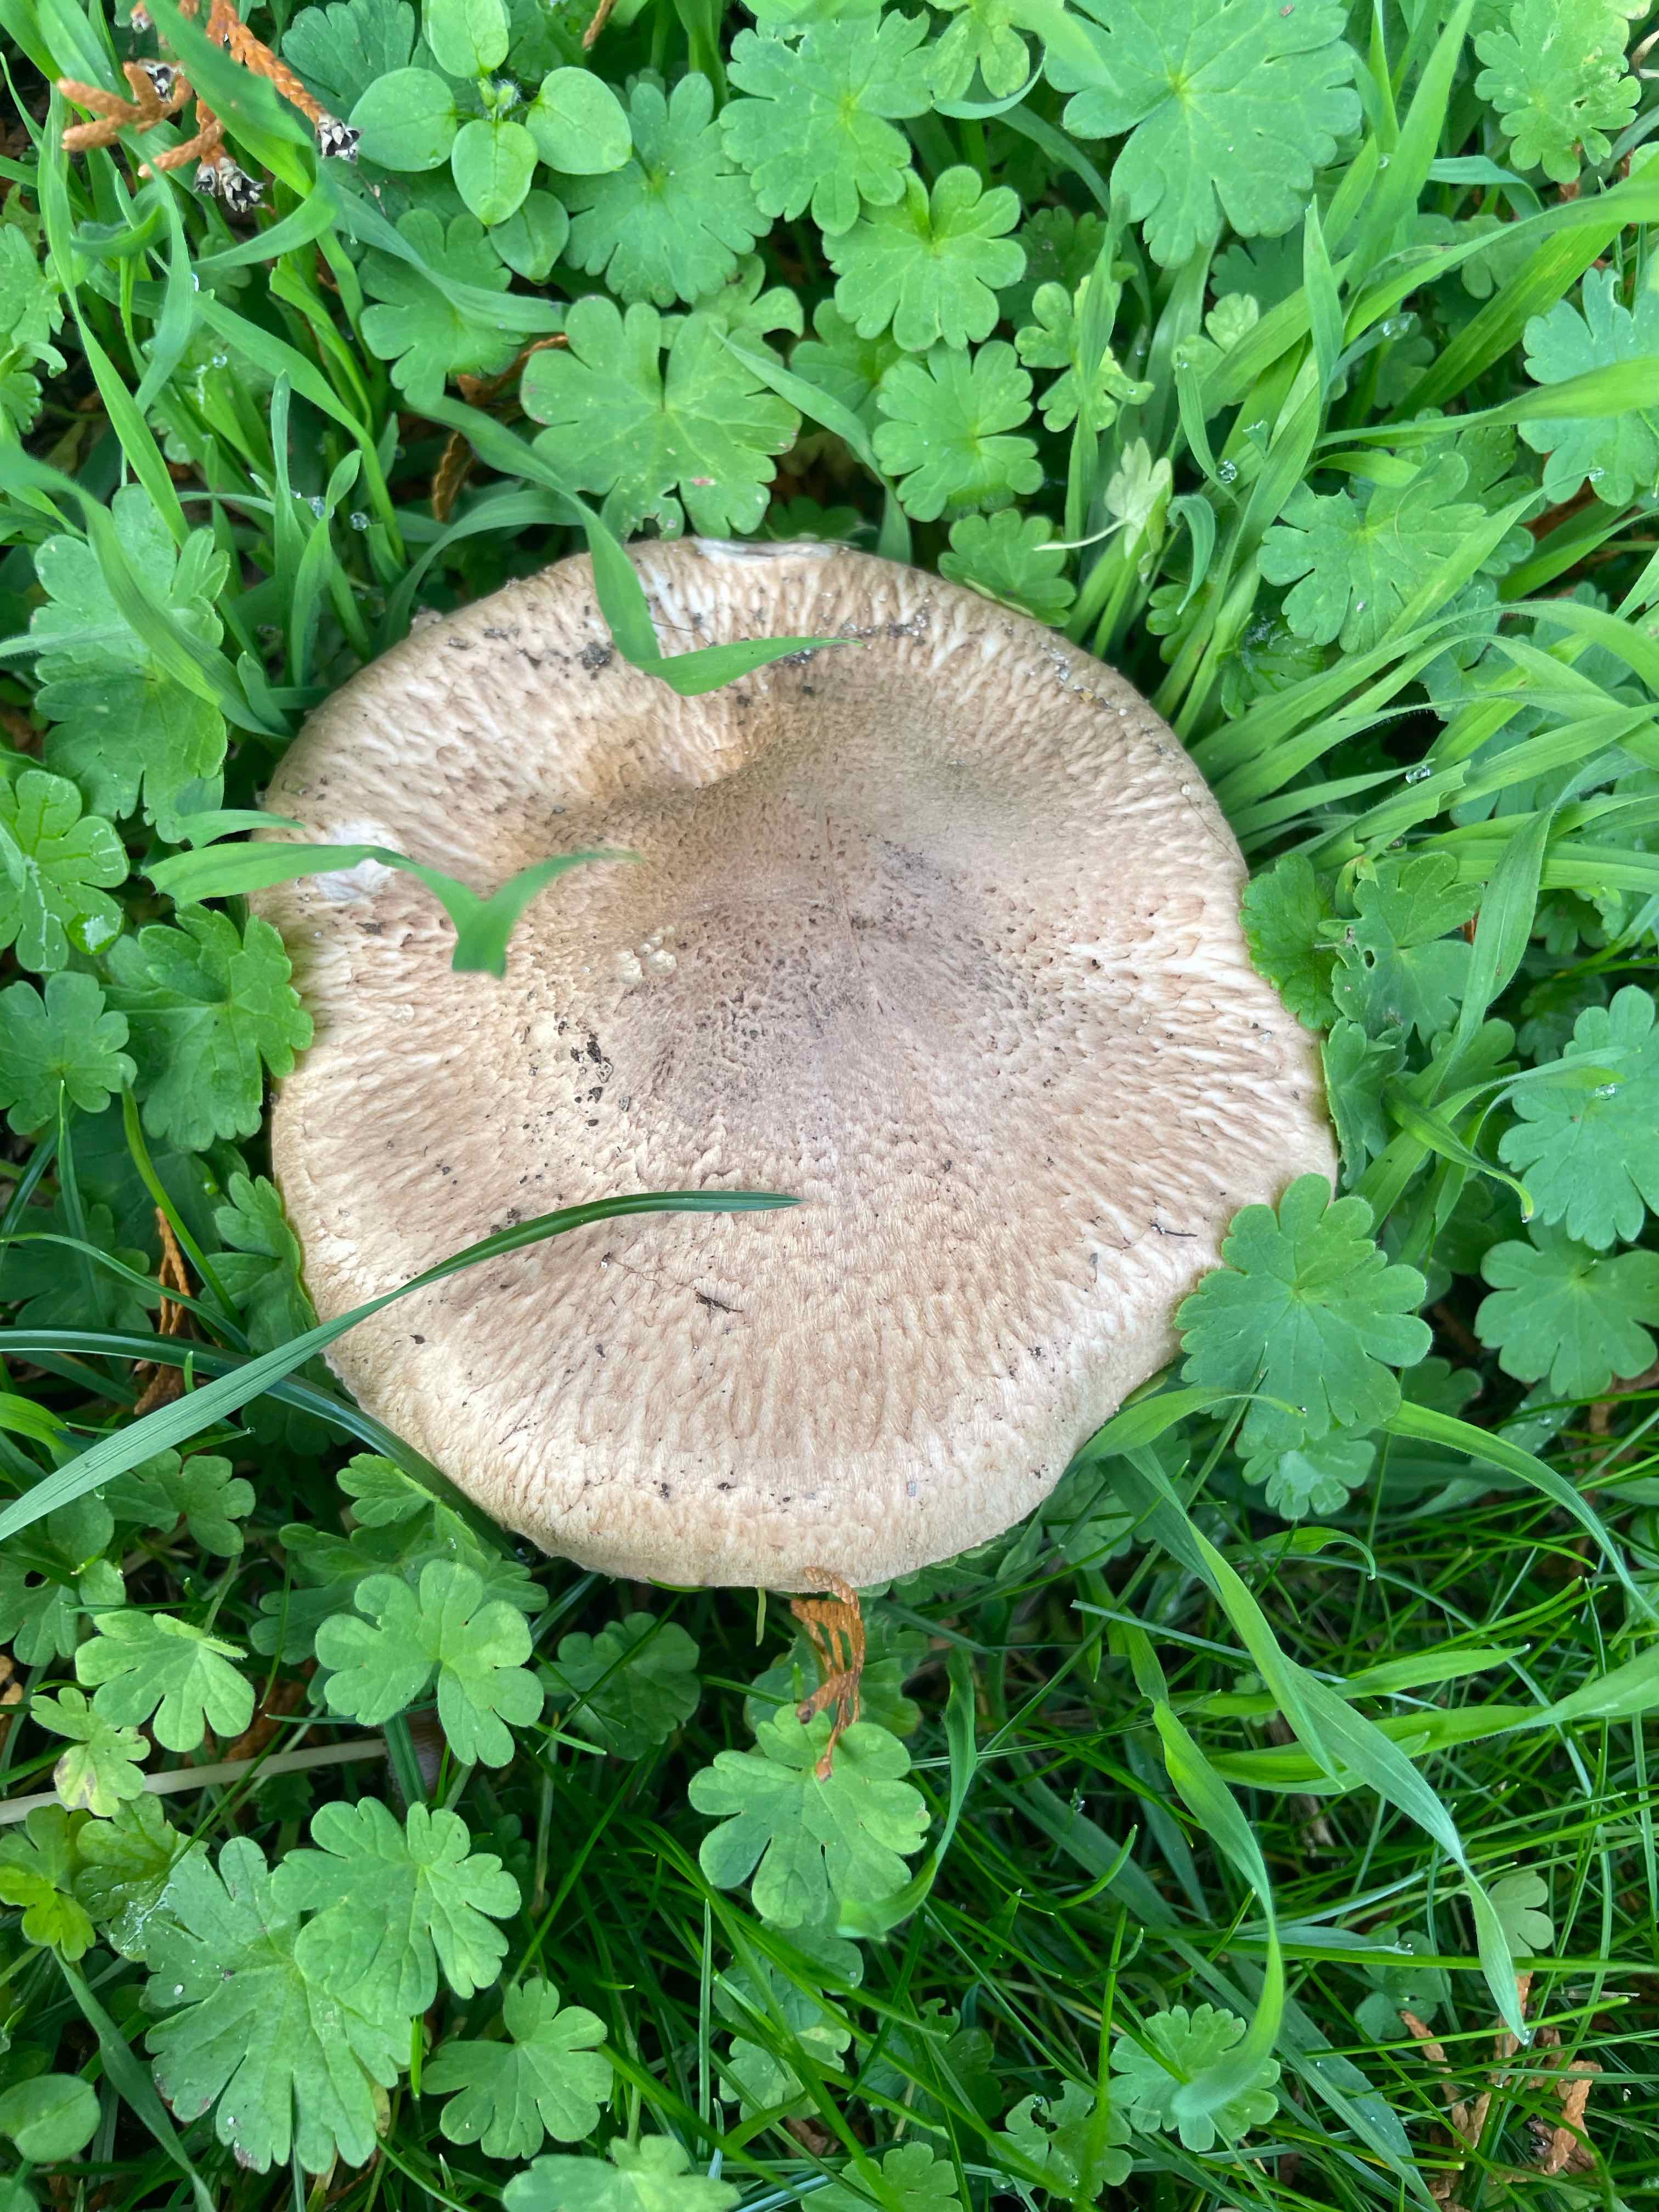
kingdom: Fungi
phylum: Basidiomycota
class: Agaricomycetes
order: Agaricales
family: Agaricaceae
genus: Agaricus
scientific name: Agaricus
